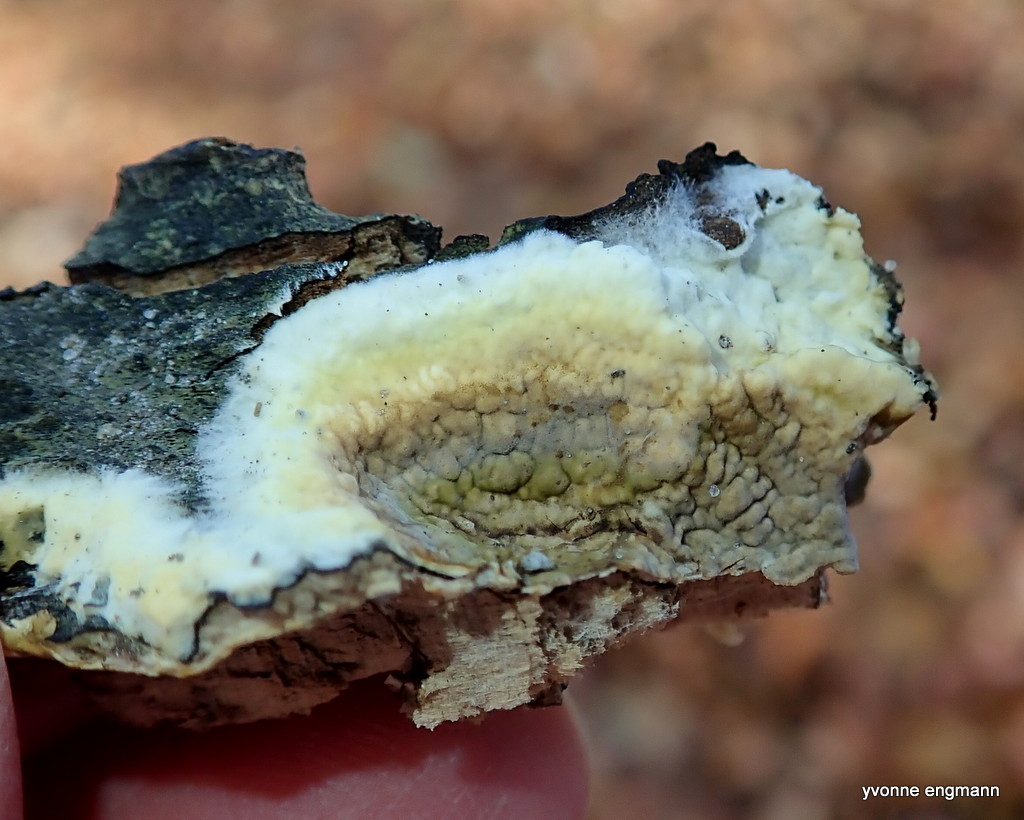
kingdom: Fungi
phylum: Basidiomycota
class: Agaricomycetes
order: Boletales
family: Coniophoraceae
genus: Coniophora
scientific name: Coniophora puteana
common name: gul tømmersvamp
